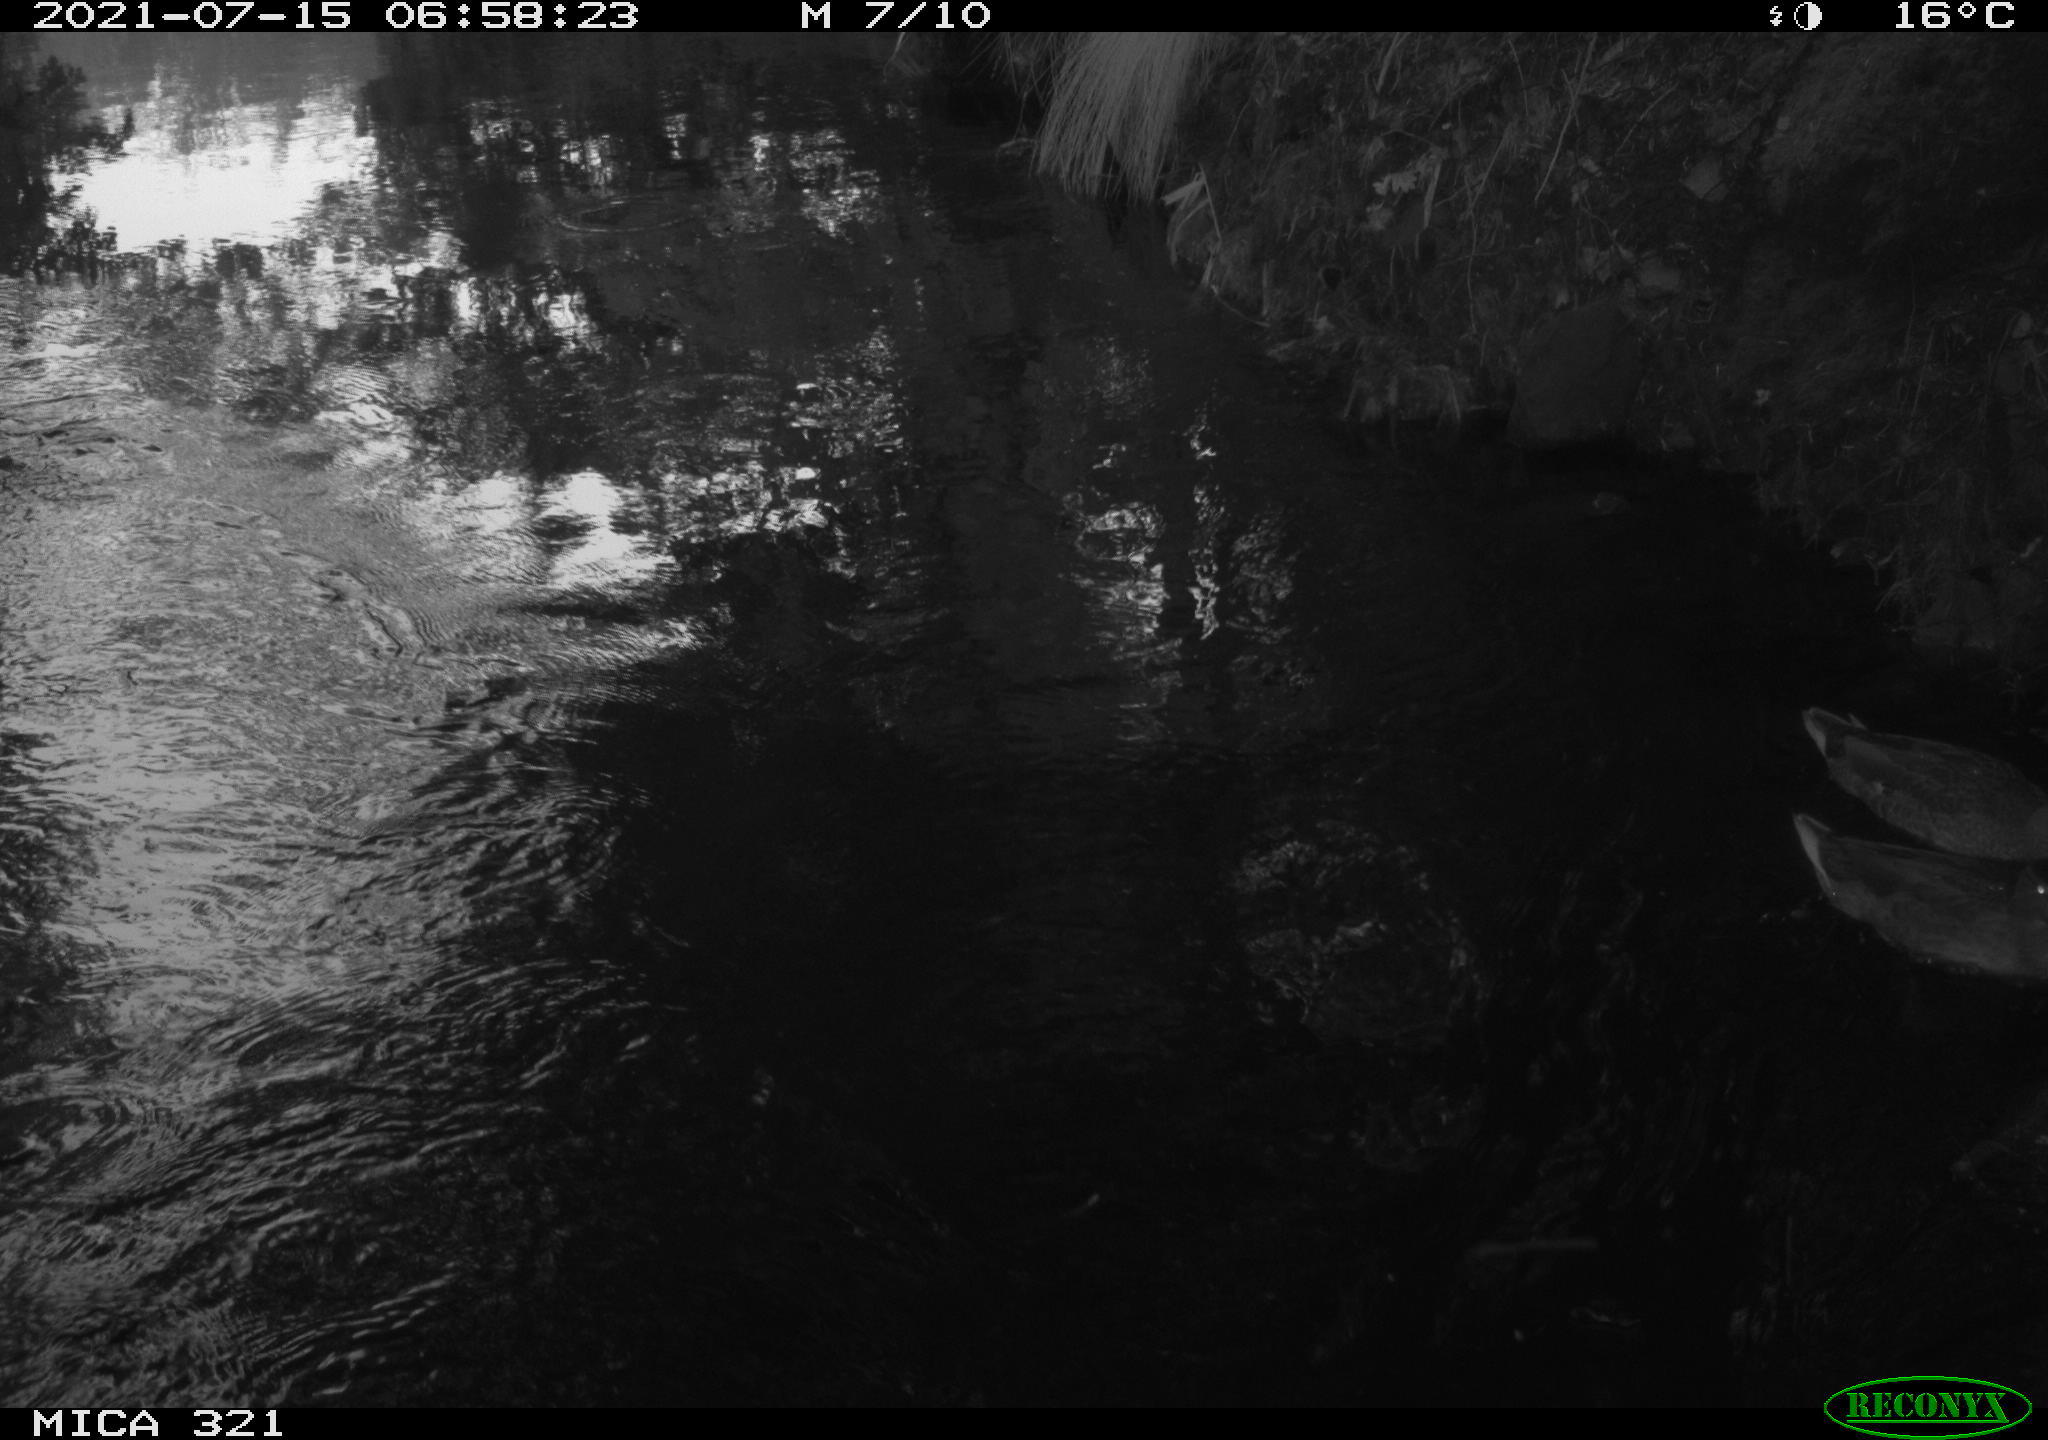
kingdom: Animalia
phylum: Chordata
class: Aves
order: Anseriformes
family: Anatidae
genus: Anas
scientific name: Anas platyrhynchos
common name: Mallard
